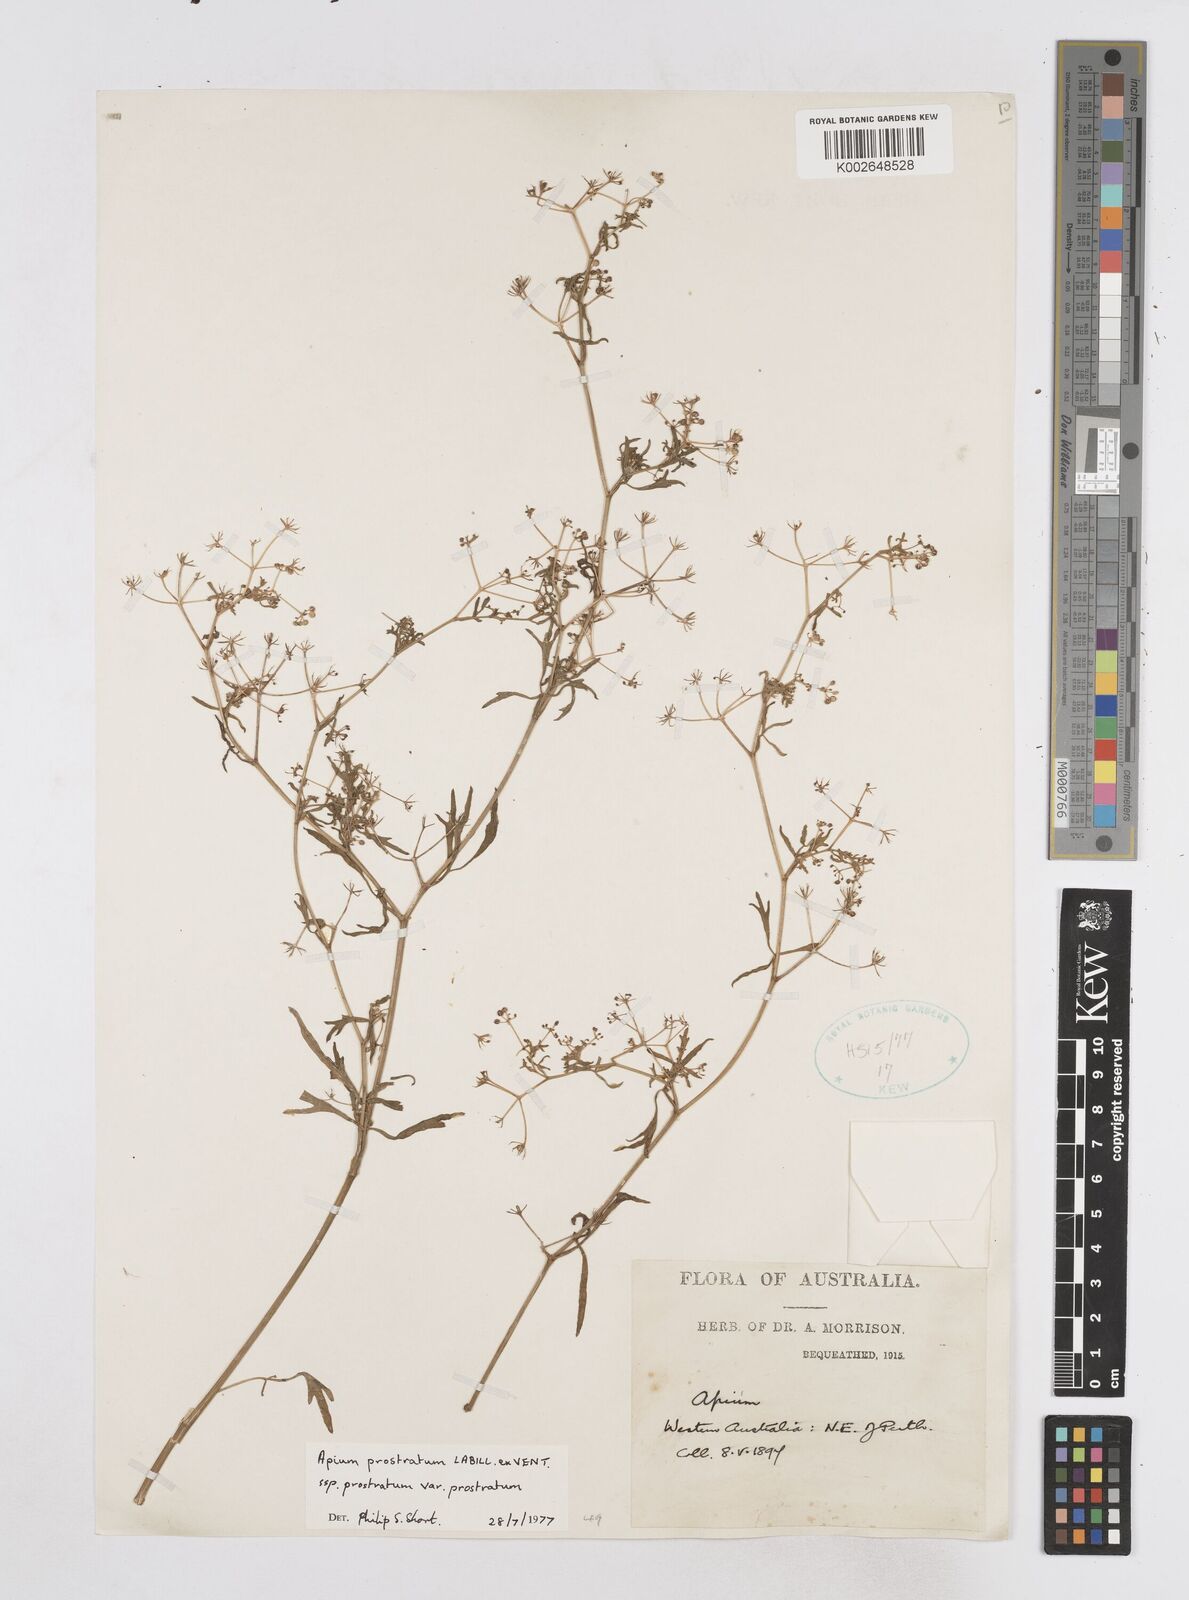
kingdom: Plantae
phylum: Tracheophyta
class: Magnoliopsida
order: Apiales
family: Apiaceae
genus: Apium
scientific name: Apium prostratum
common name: Prostrate marshwort
